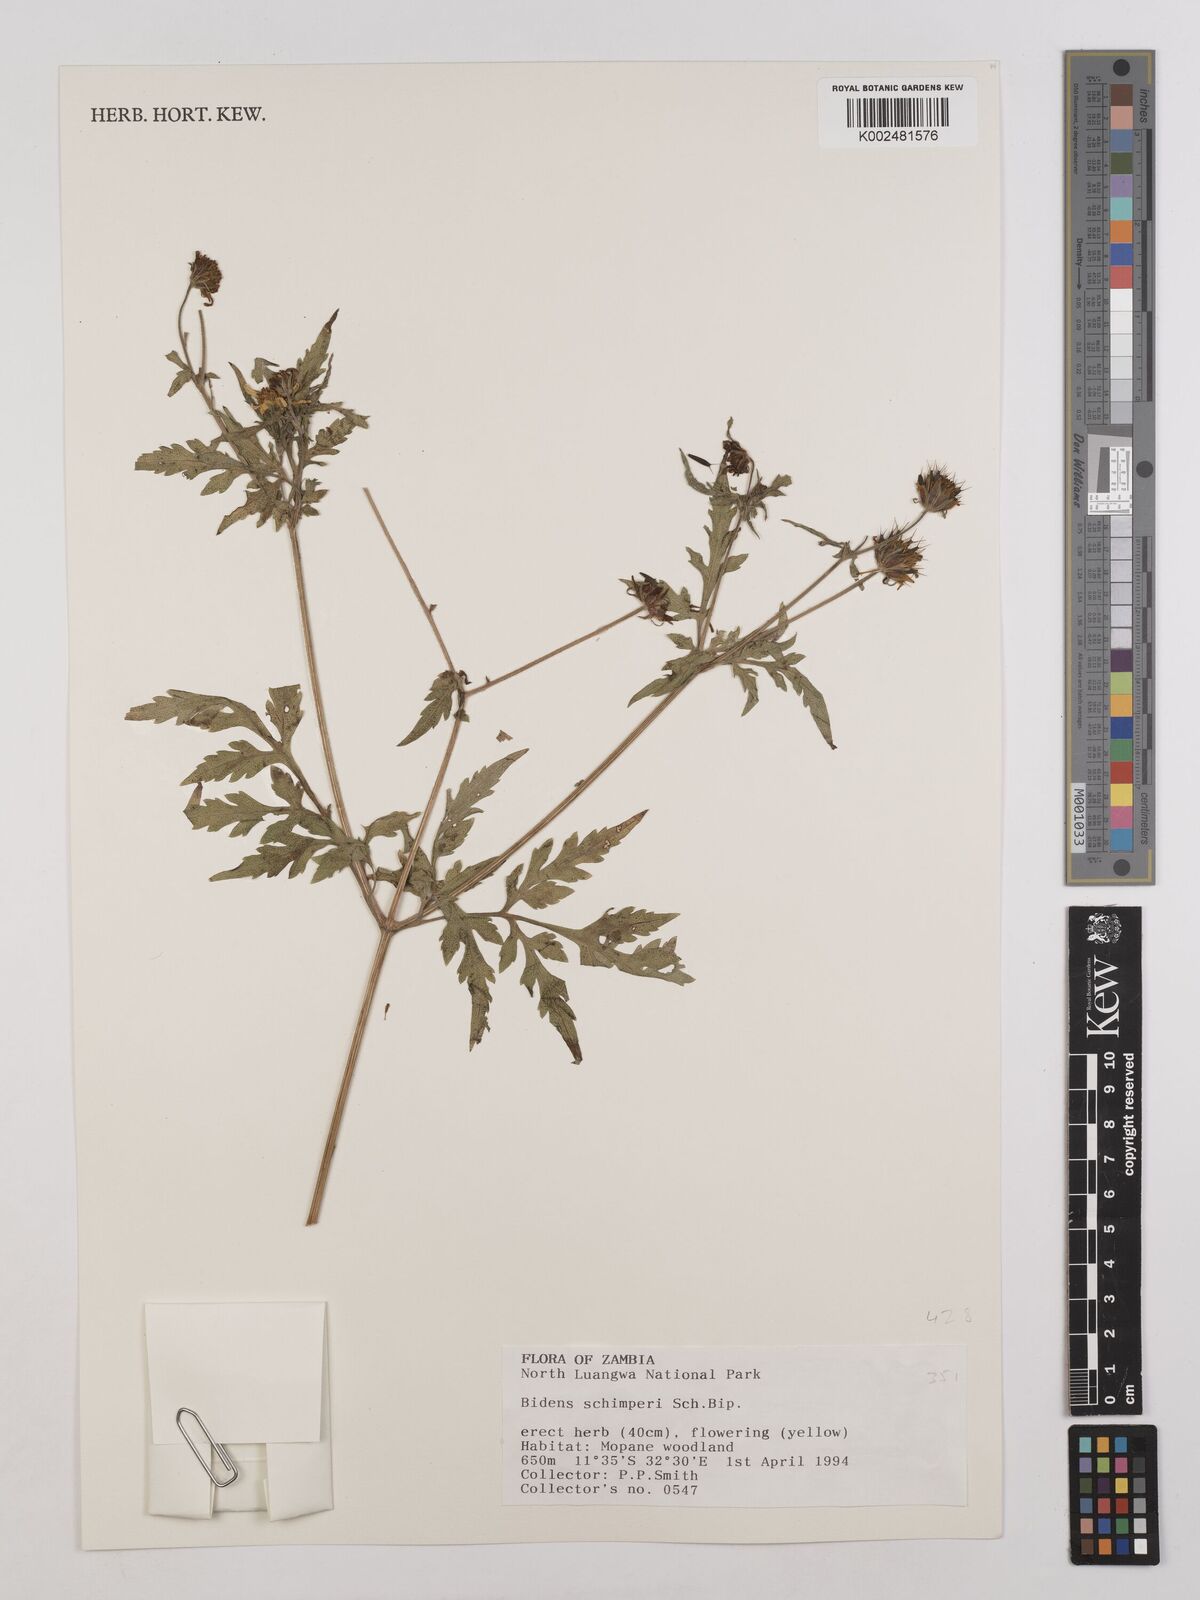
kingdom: Plantae
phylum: Tracheophyta
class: Magnoliopsida
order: Asterales
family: Asteraceae
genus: Bidens
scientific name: Bidens schimperi
